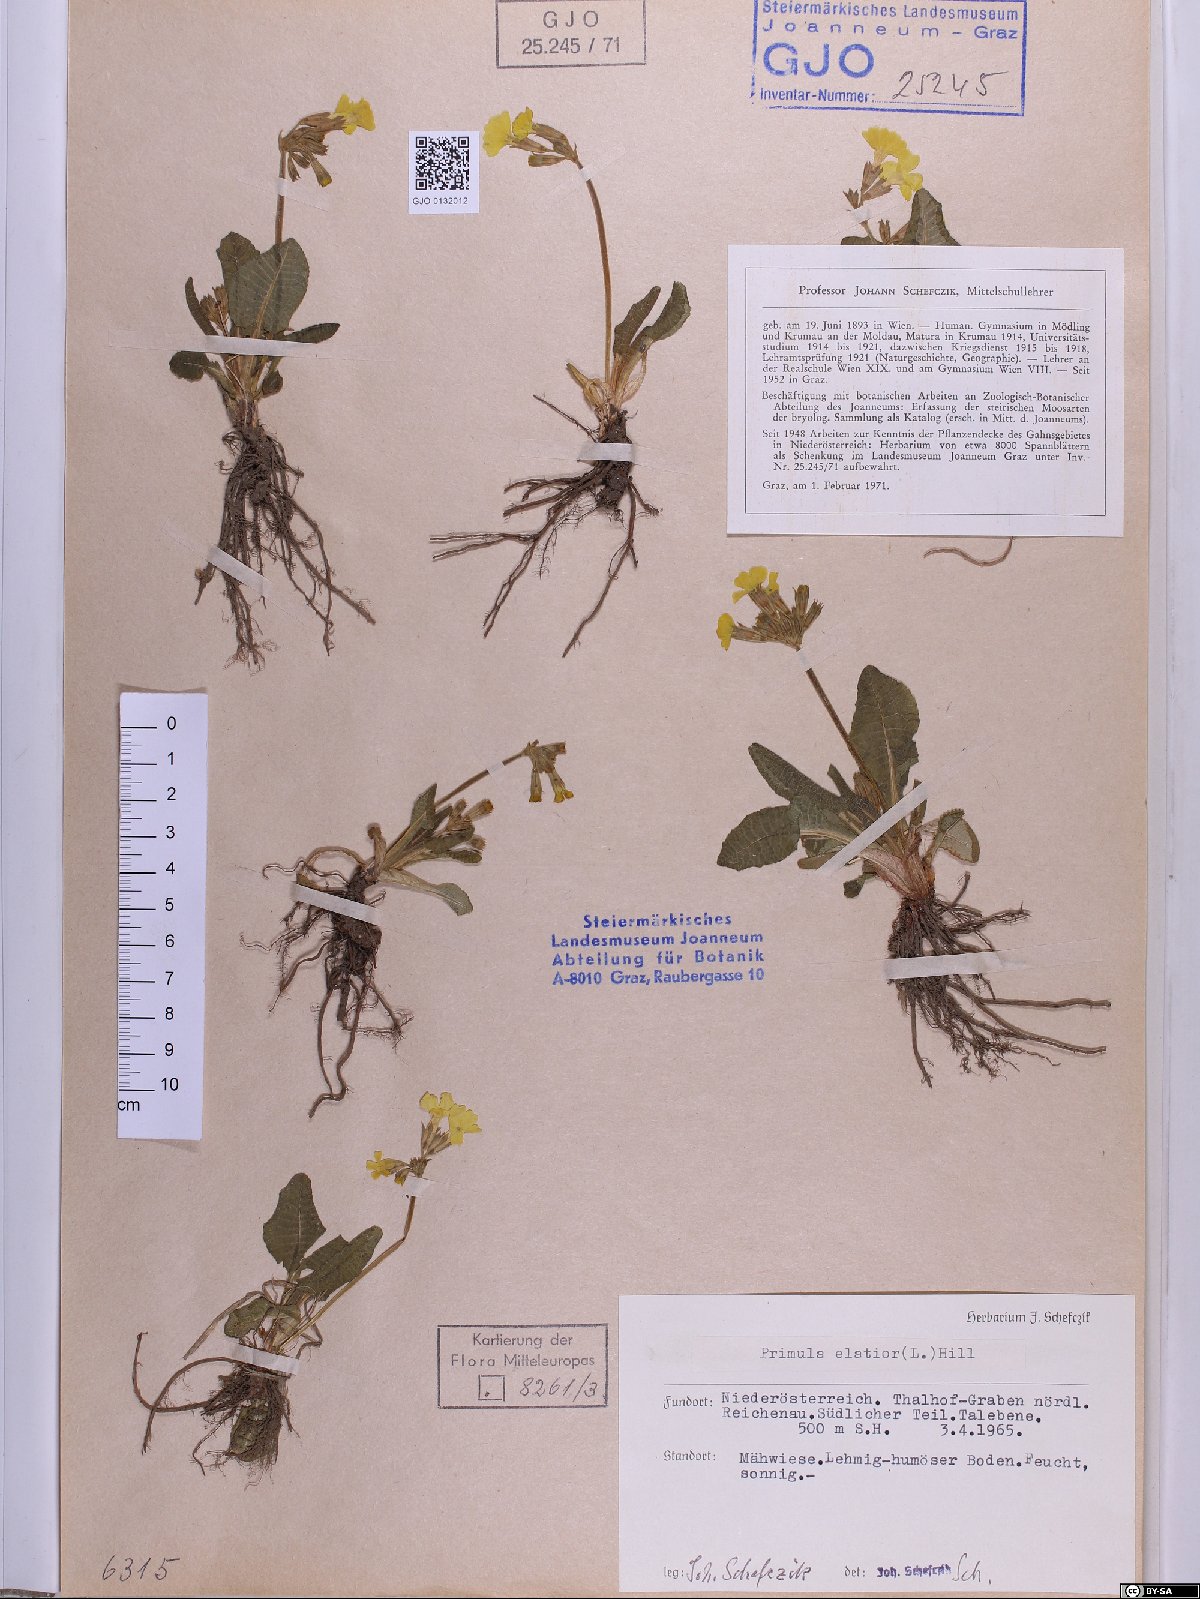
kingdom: Plantae
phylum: Tracheophyta
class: Magnoliopsida
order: Ericales
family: Primulaceae
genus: Primula
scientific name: Primula elatior
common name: Oxlip
